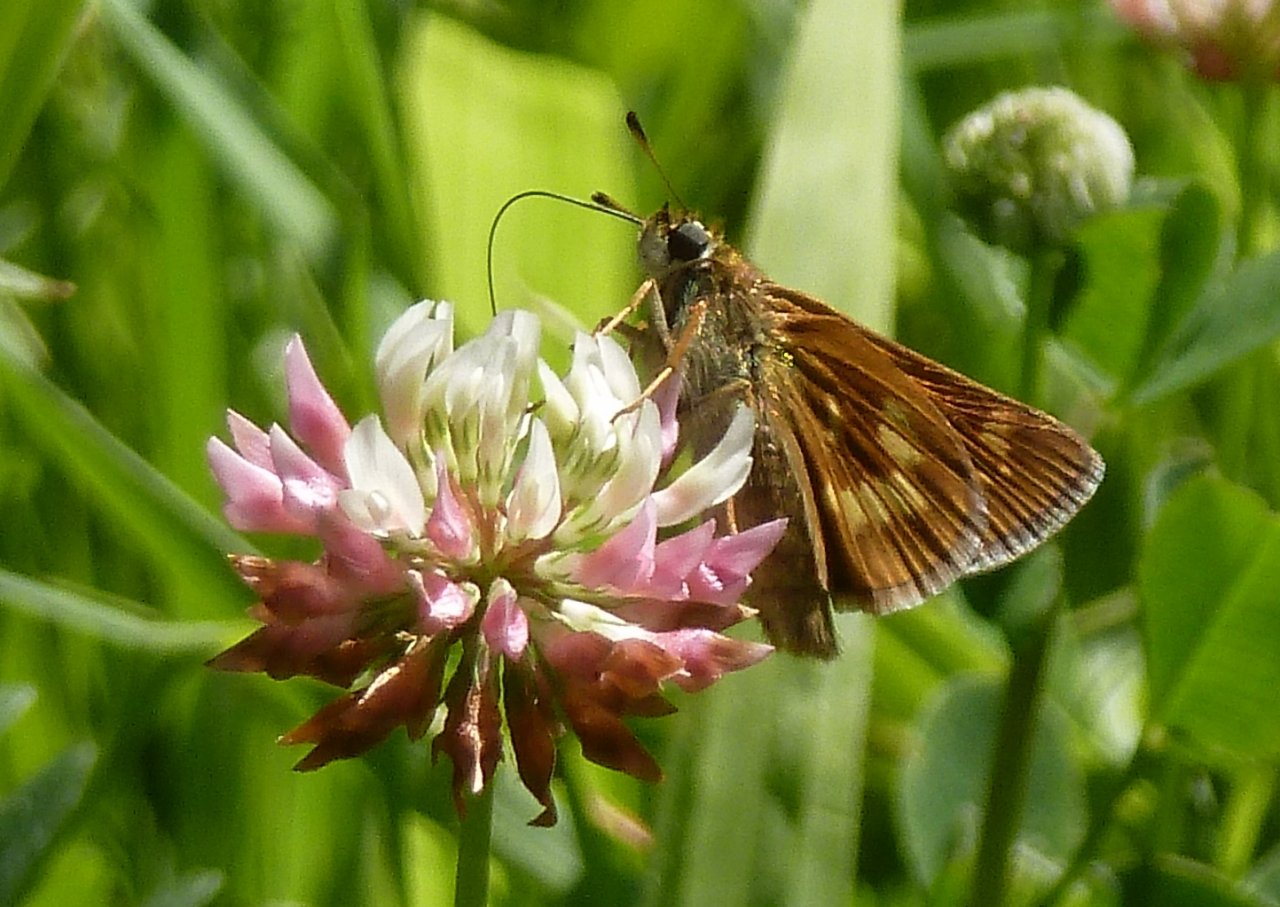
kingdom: Animalia
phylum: Arthropoda
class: Insecta
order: Lepidoptera
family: Hesperiidae
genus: Polites
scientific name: Polites
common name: Long Dash Skipper
